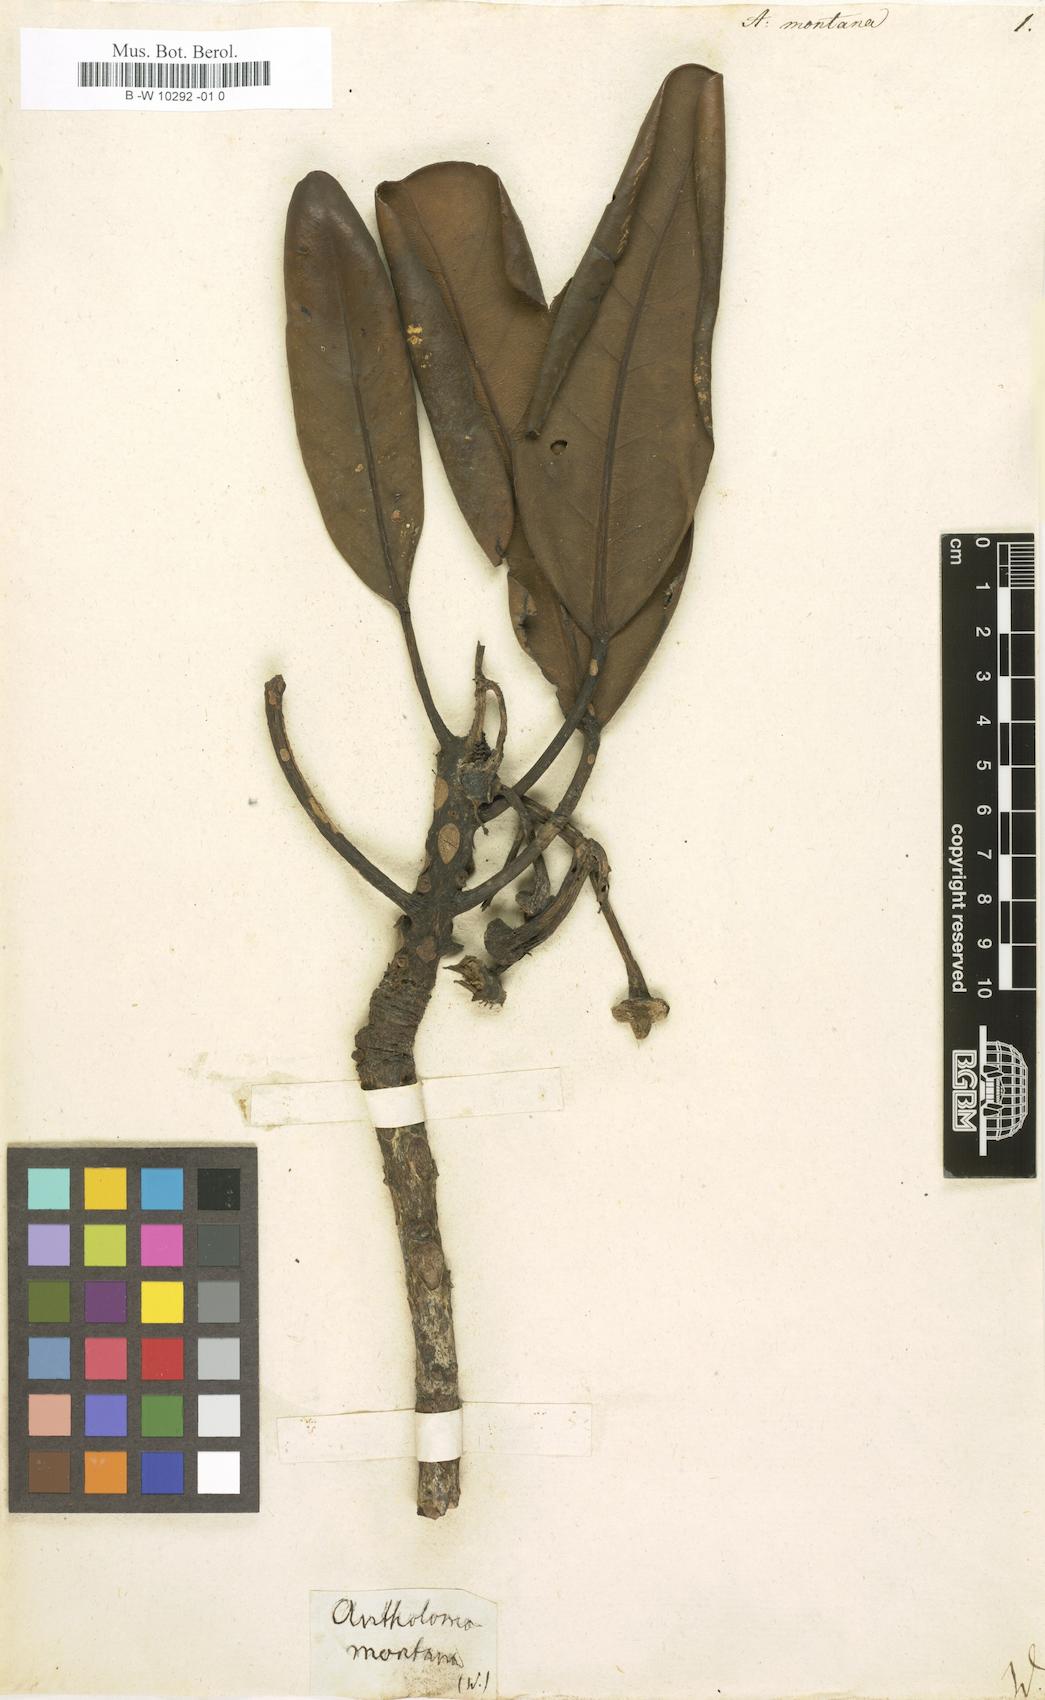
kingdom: Plantae
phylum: Tracheophyta
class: Magnoliopsida
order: Oxalidales
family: Elaeocarpaceae
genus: Sloanea
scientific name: Sloanea montana
